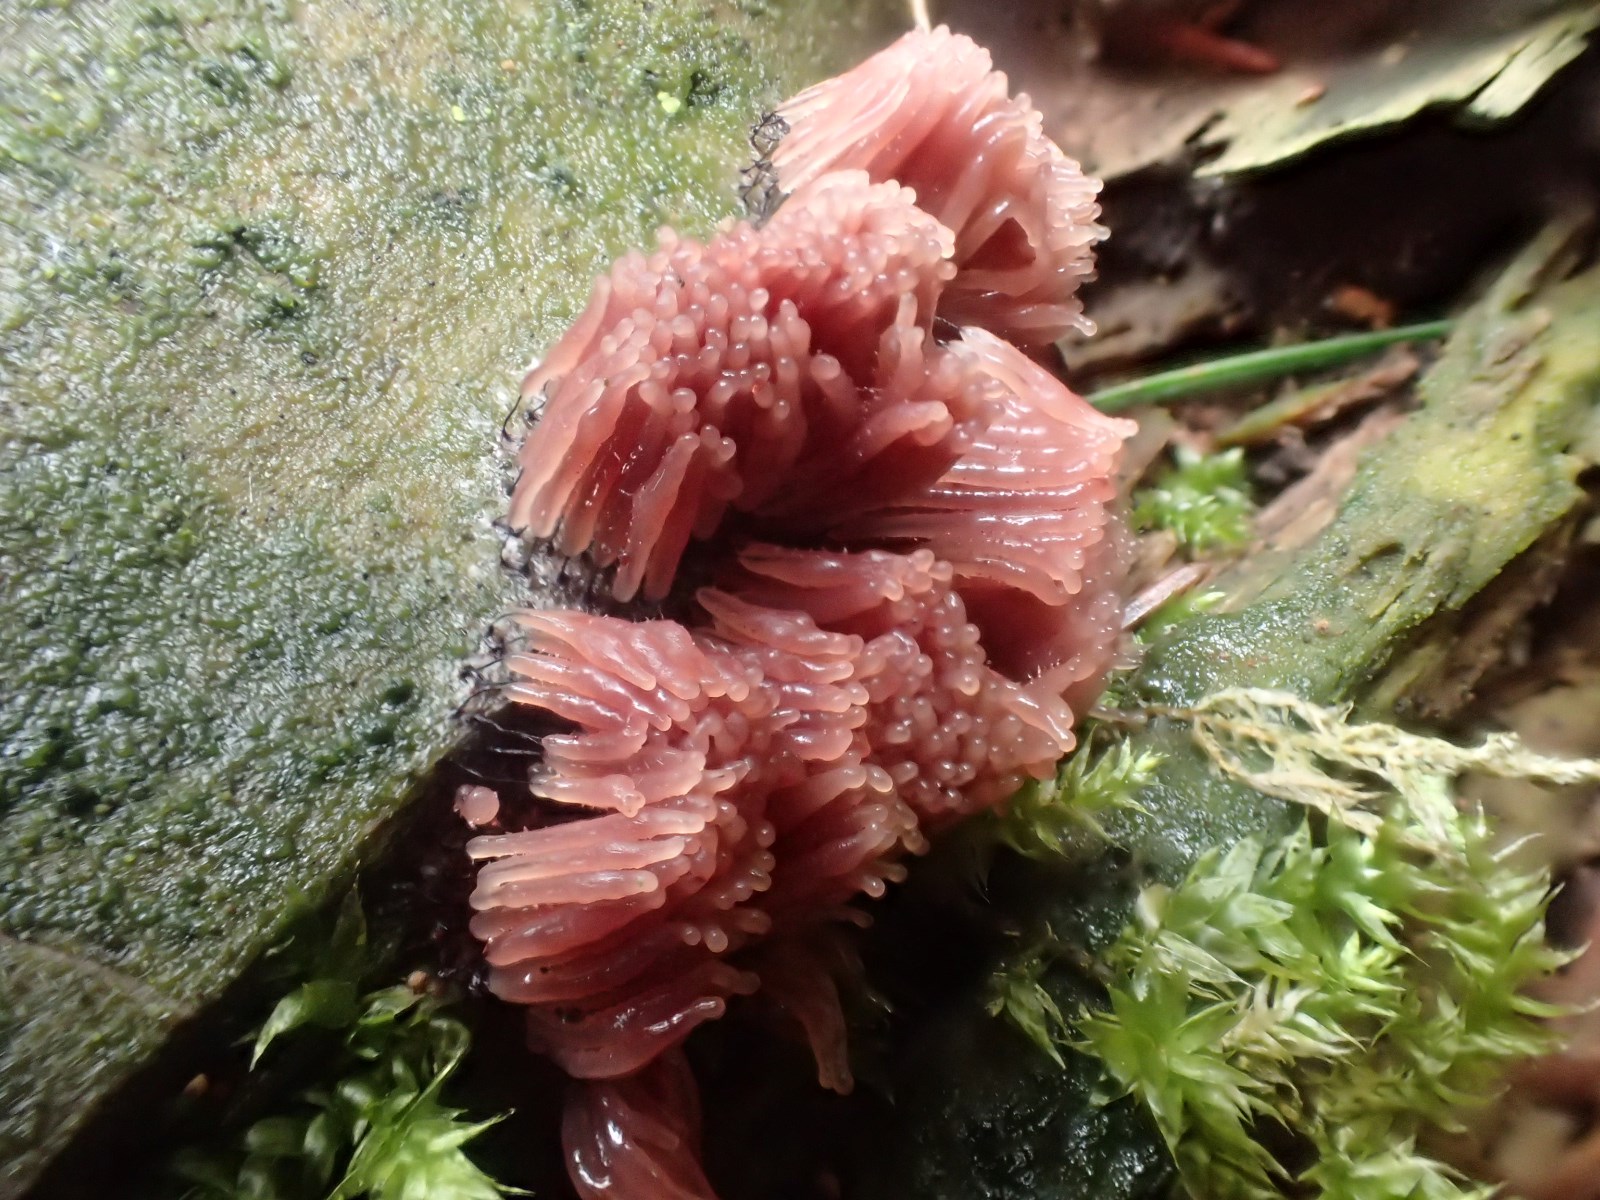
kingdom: Protozoa
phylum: Mycetozoa
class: Myxomycetes
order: Stemonitidales
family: Stemonitidaceae
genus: Stemonitopsis
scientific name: Stemonitopsis
